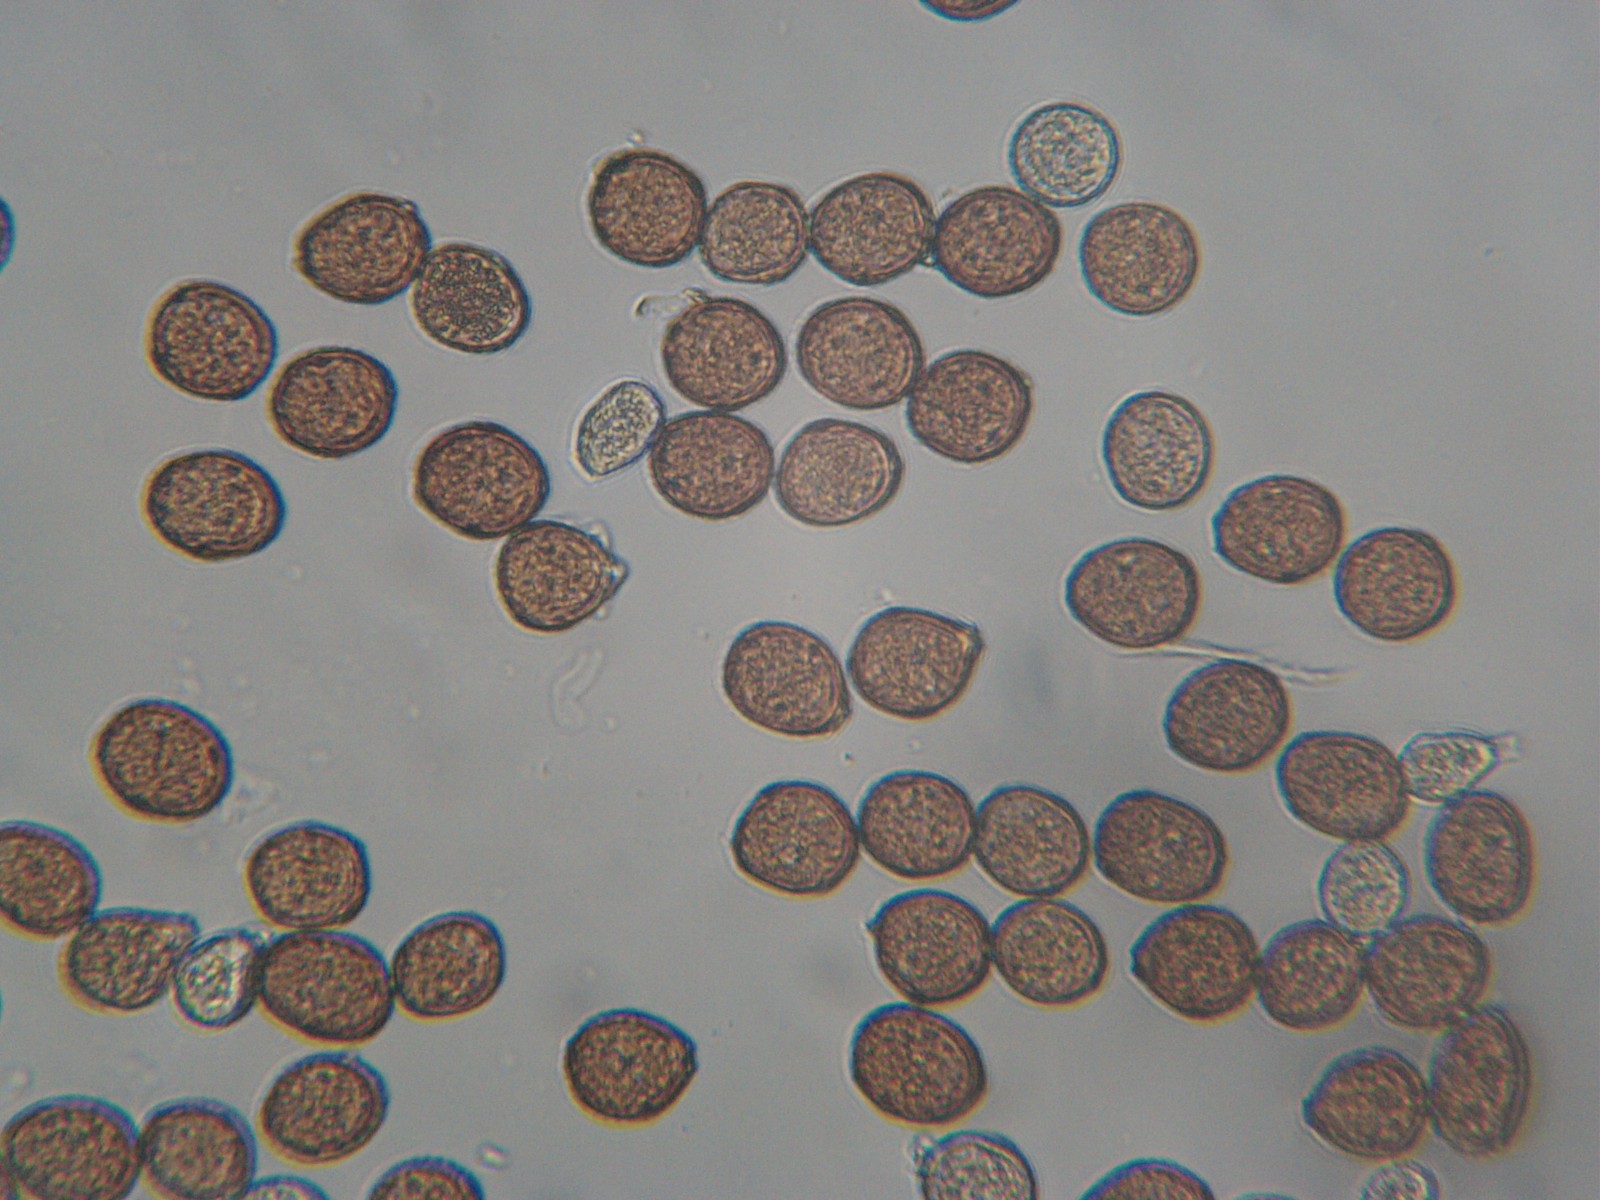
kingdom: Fungi
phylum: Basidiomycota
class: Pucciniomycetes
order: Pucciniales
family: Pucciniaceae
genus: Uromyces
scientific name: Uromyces fallens
